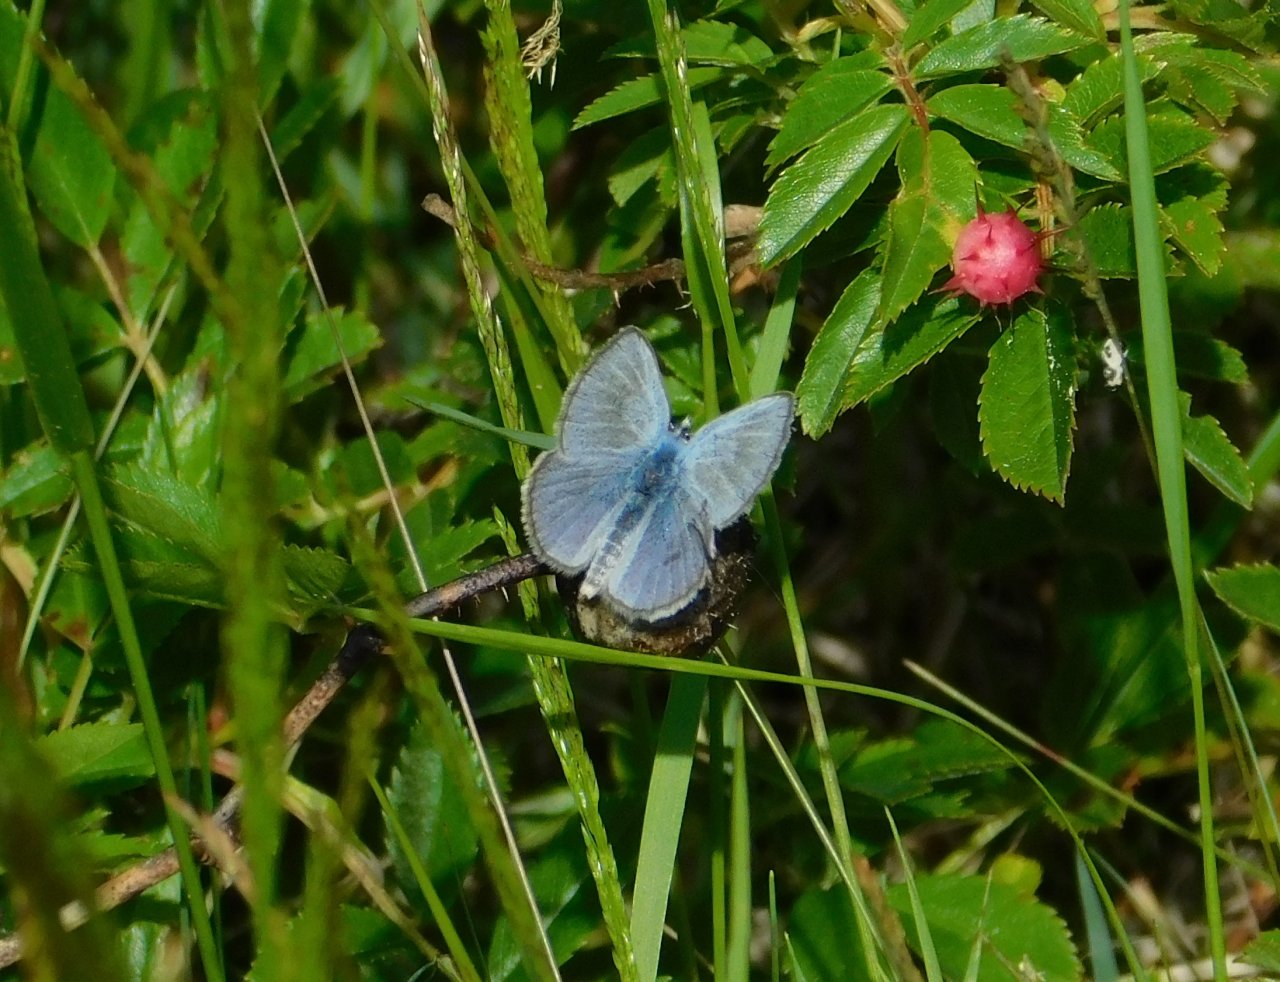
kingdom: Animalia
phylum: Arthropoda
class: Insecta
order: Lepidoptera
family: Lycaenidae
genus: Glaucopsyche
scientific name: Glaucopsyche lygdamus
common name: Silvery Blue
